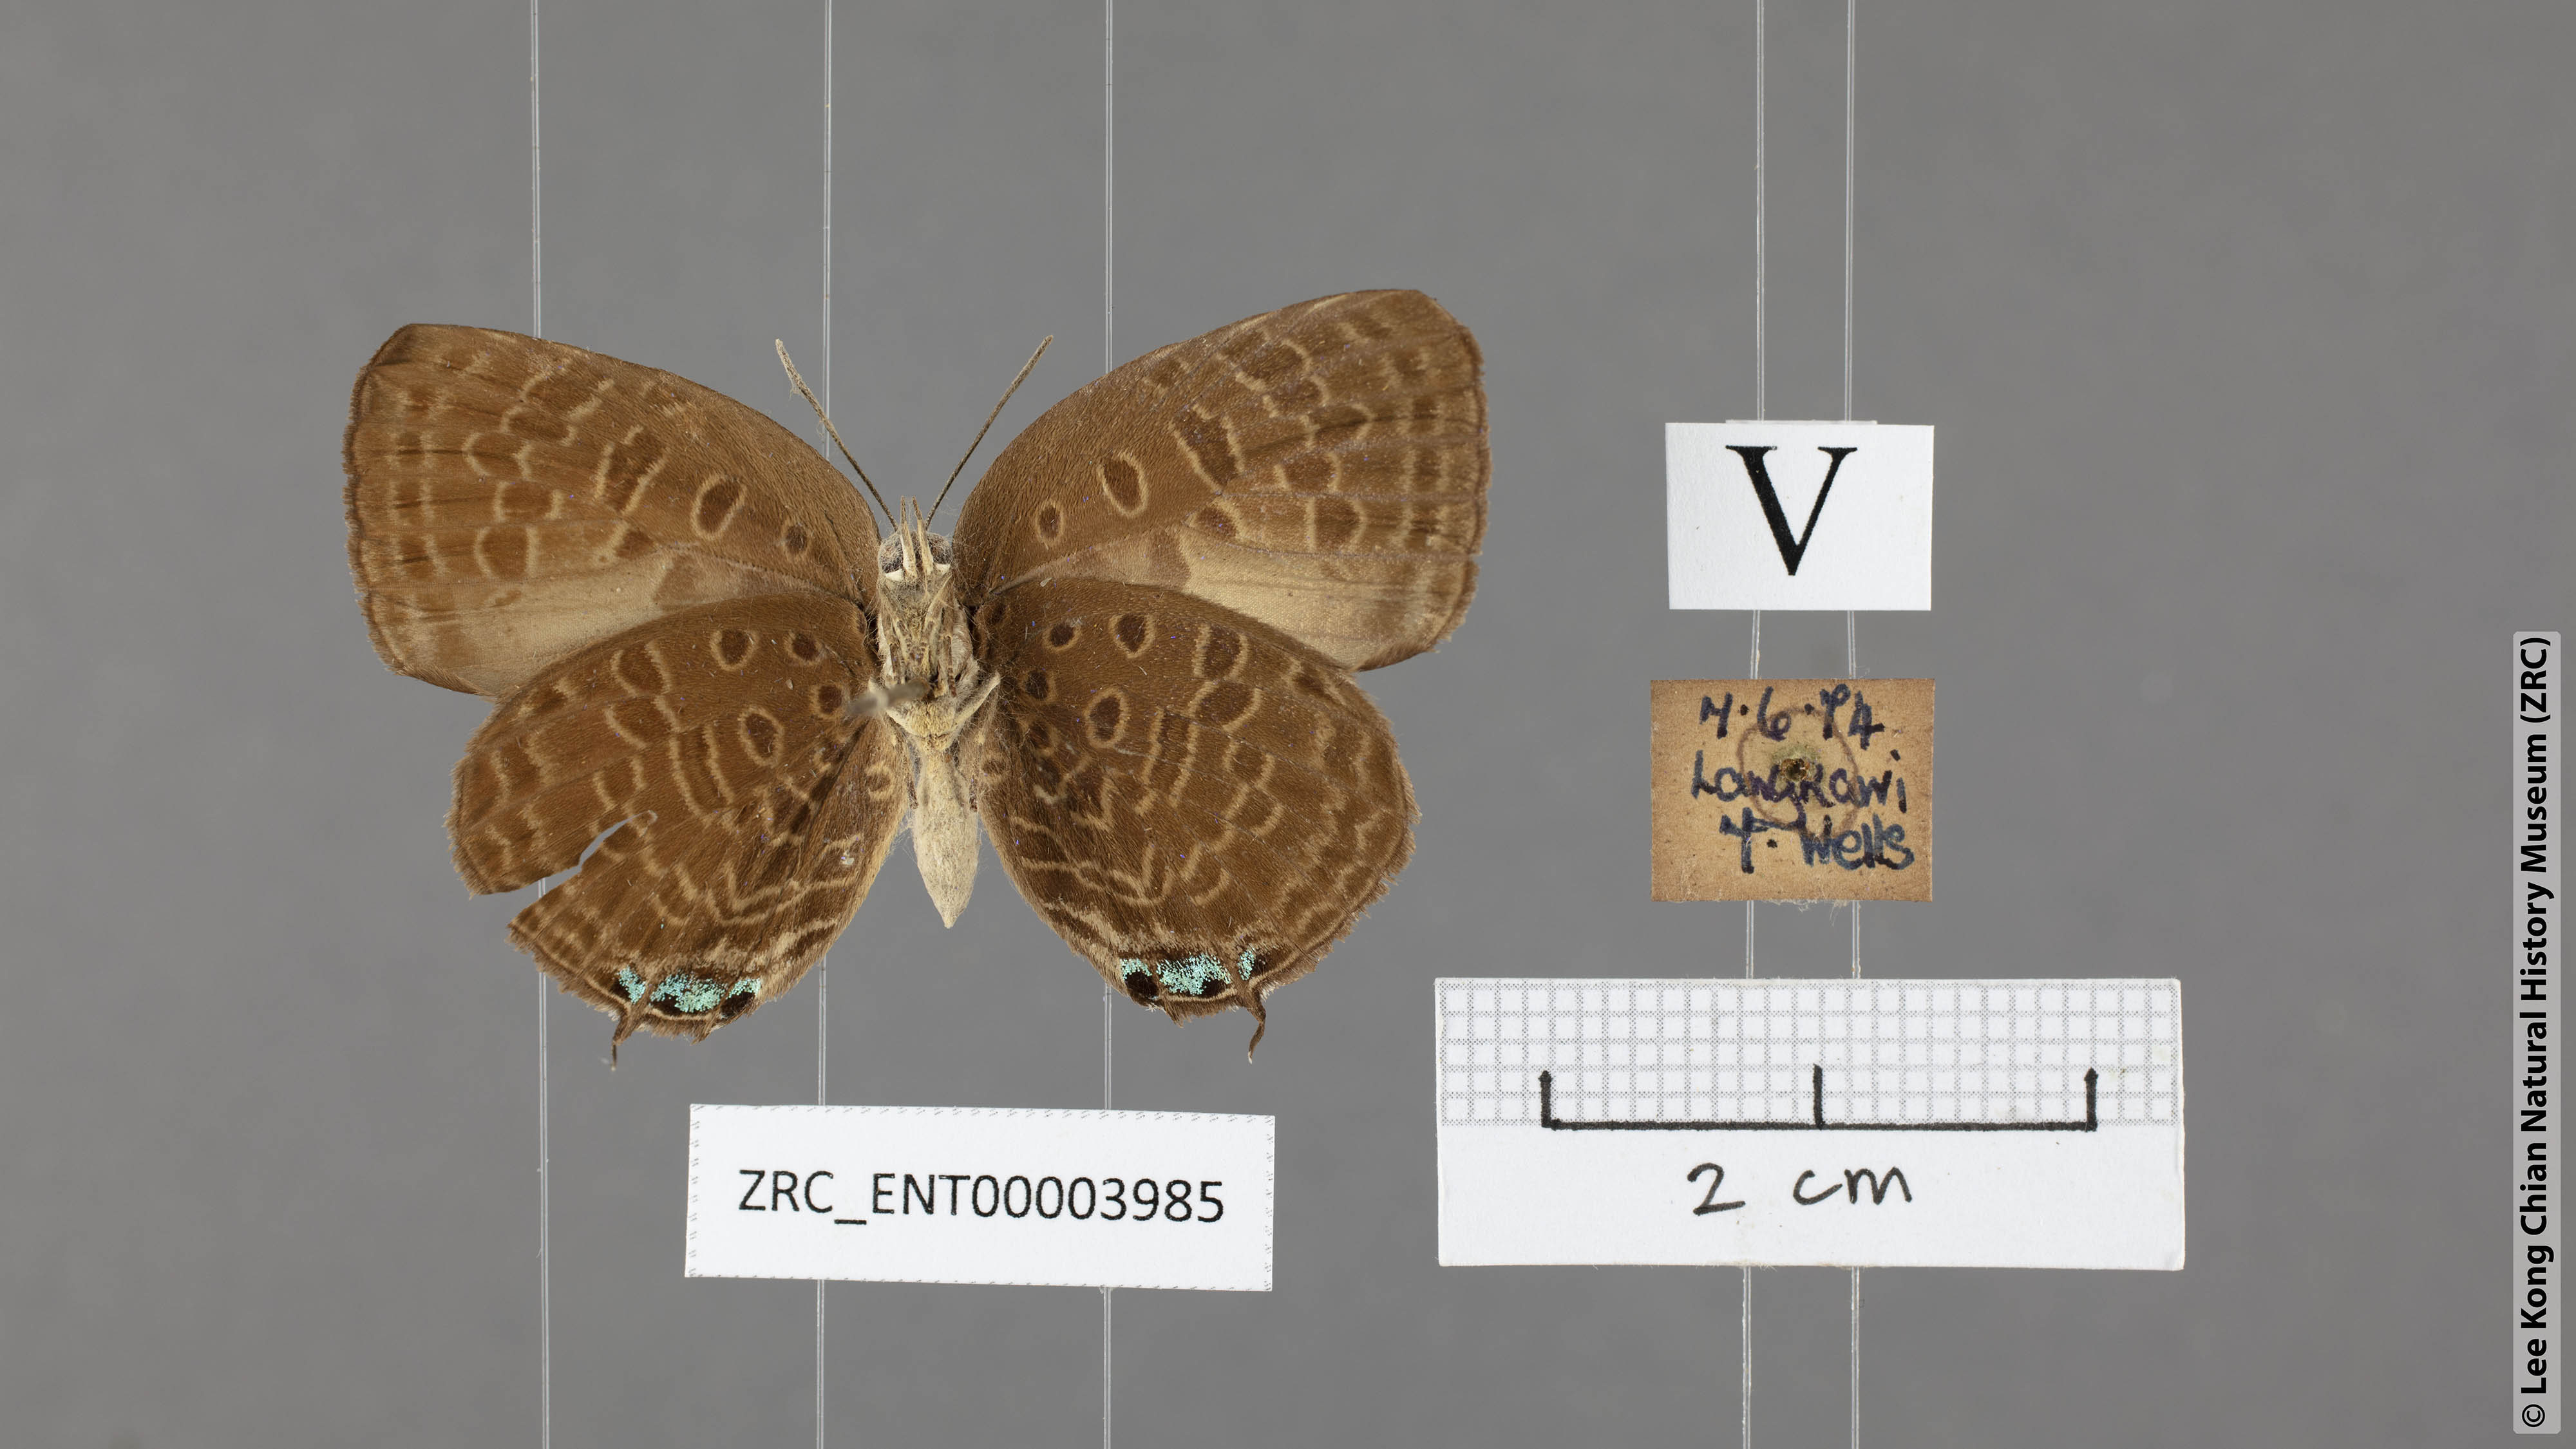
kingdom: Animalia
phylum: Arthropoda
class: Insecta
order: Lepidoptera
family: Lycaenidae
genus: Arhopala
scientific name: Arhopala atosia
